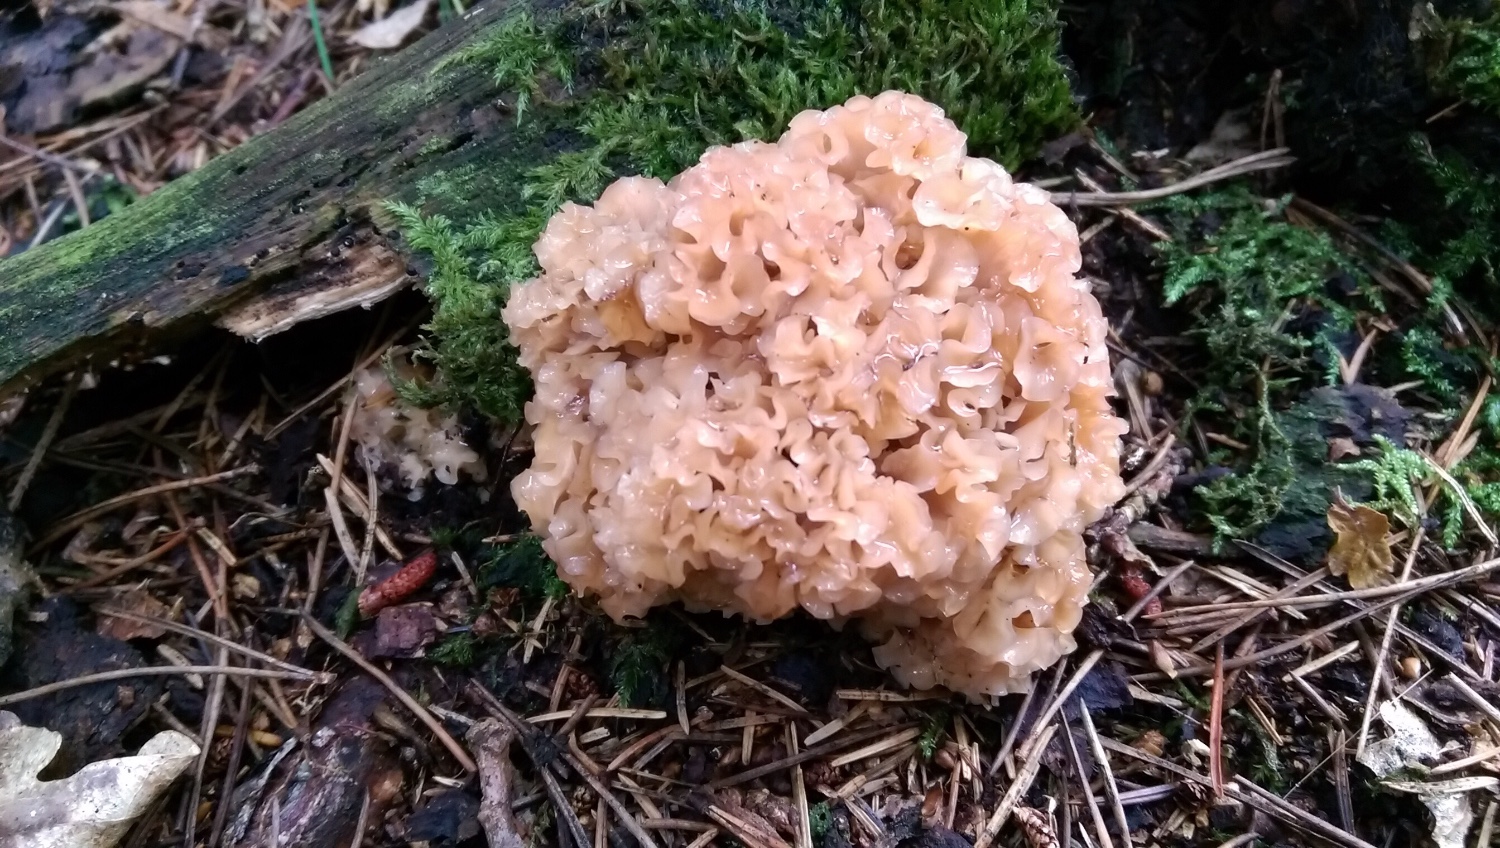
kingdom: Fungi
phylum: Basidiomycota
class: Agaricomycetes
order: Polyporales
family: Sparassidaceae
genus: Sparassis
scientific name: Sparassis crispa
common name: kruset blomkålssvamp
